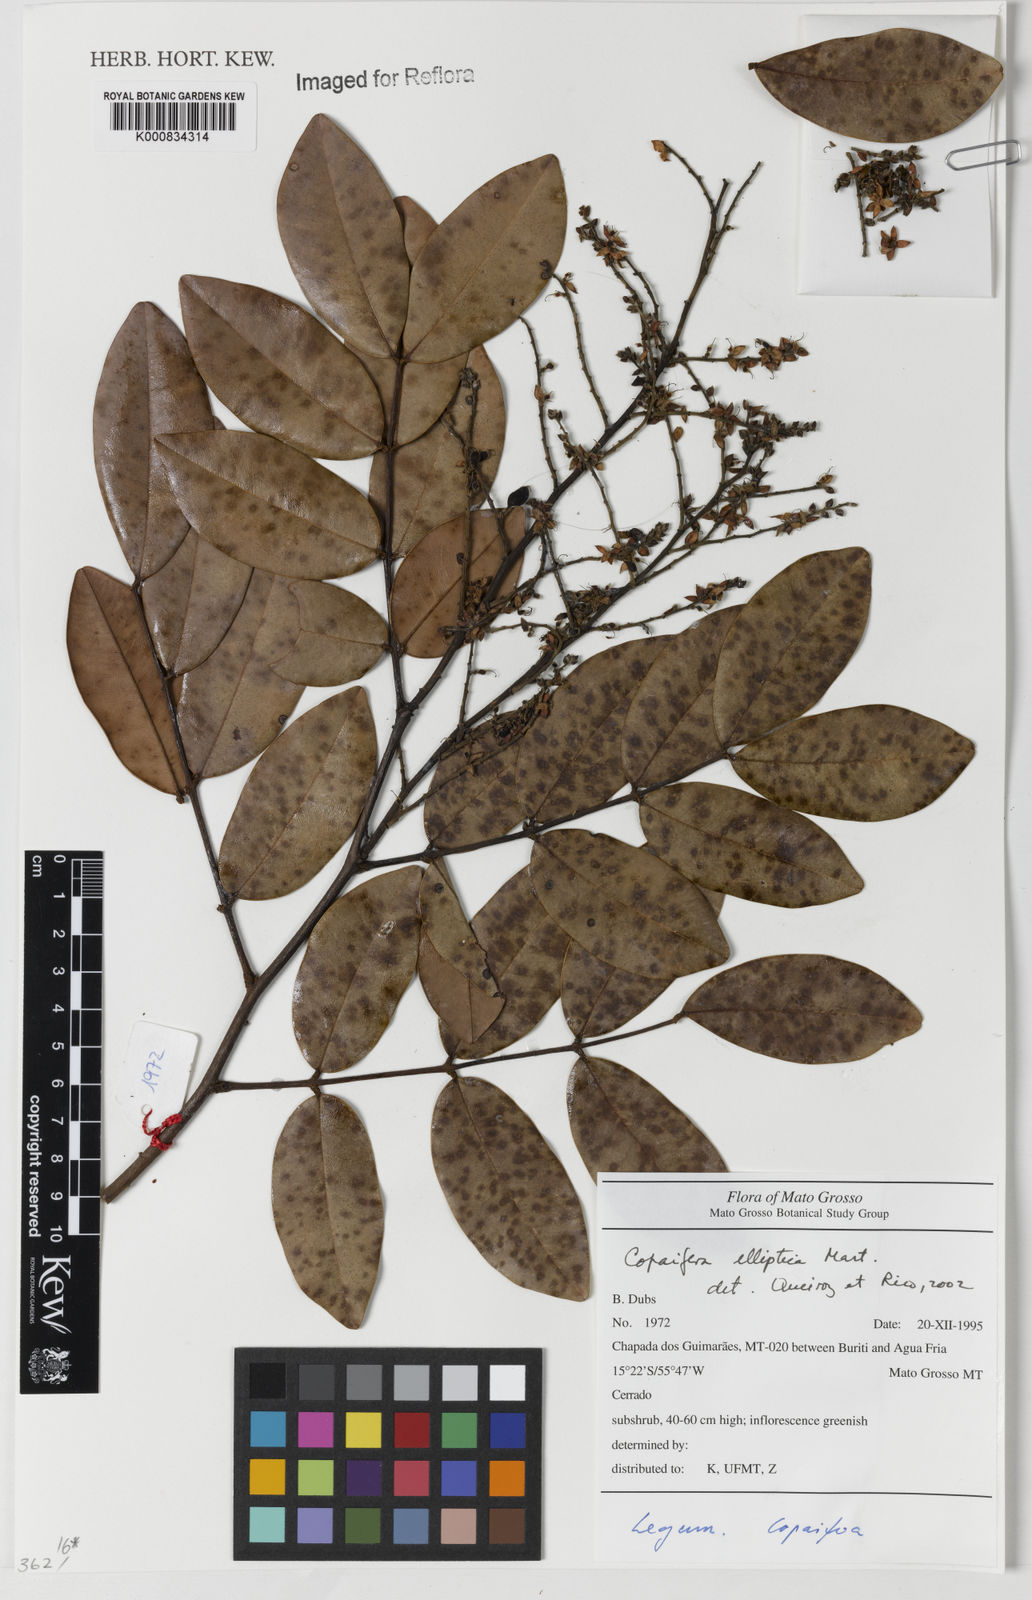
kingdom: Plantae
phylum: Tracheophyta
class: Magnoliopsida
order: Fabales
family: Fabaceae
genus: Copaifera
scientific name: Copaifera elliptica
